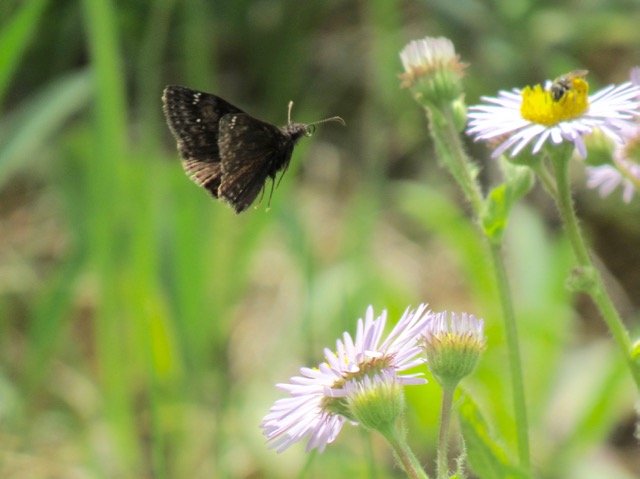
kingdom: Animalia
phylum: Arthropoda
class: Insecta
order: Lepidoptera
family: Hesperiidae
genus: Gesta
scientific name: Gesta
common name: Wild Indigo Duskywing
